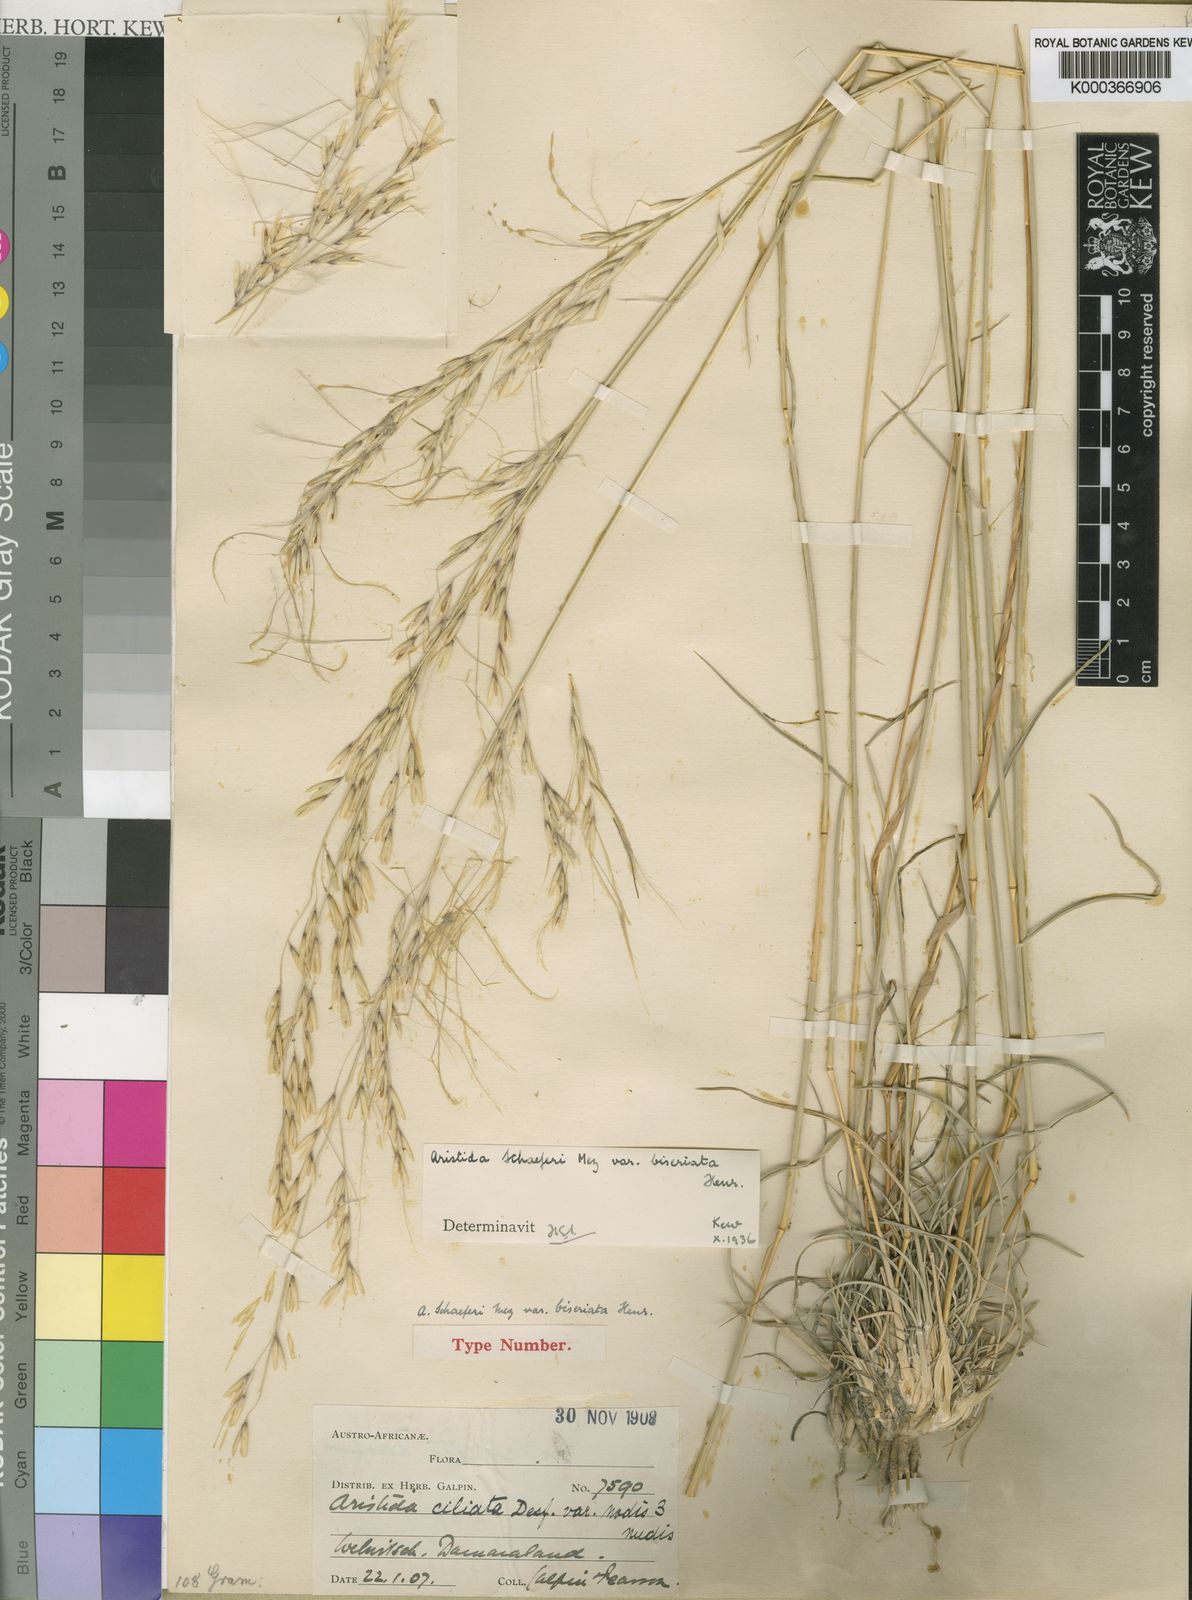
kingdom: Plantae
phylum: Tracheophyta
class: Liliopsida
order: Poales
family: Poaceae
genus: Stipagrostis
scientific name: Stipagrostis schaeferi
